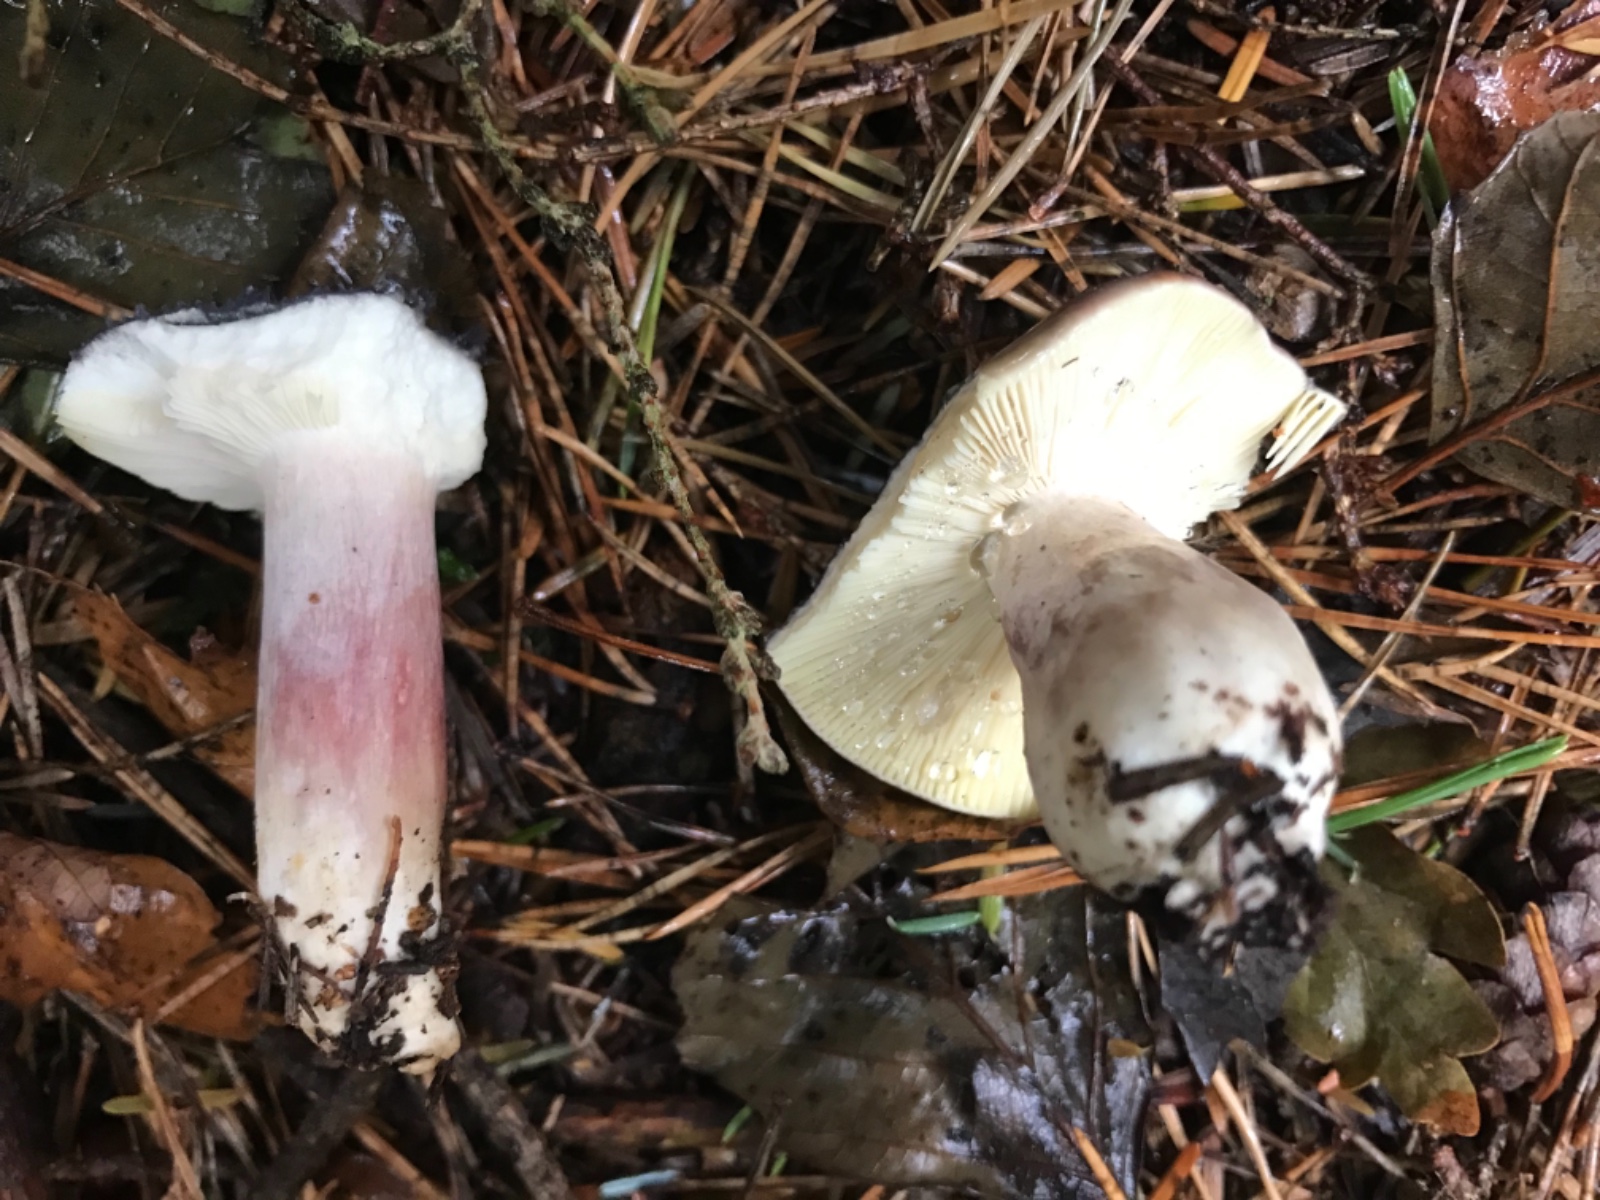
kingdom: Fungi
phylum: Basidiomycota
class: Agaricomycetes
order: Russulales
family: Russulaceae
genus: Russula
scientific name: Russula sardonia
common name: citronbladet skørhat
